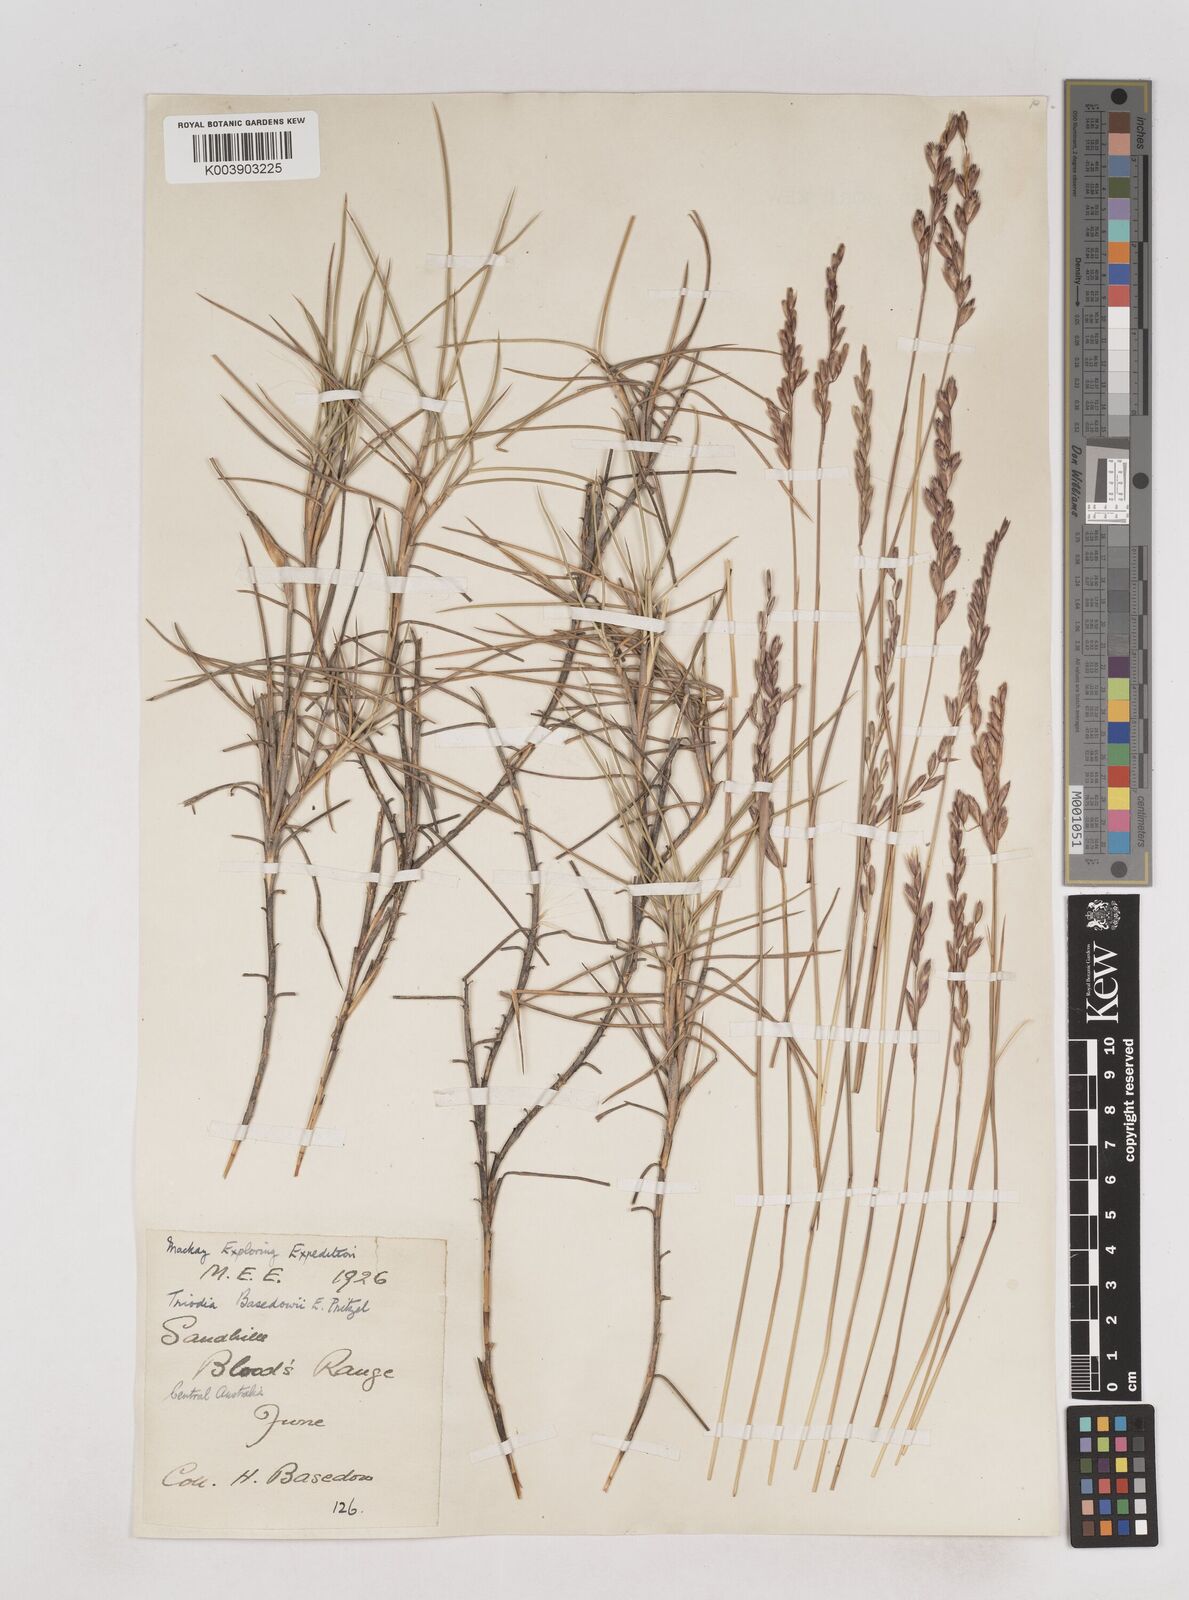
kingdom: Plantae
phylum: Tracheophyta
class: Liliopsida
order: Poales
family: Poaceae
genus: Triodia
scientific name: Triodia basedowii
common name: Hard spinifex
